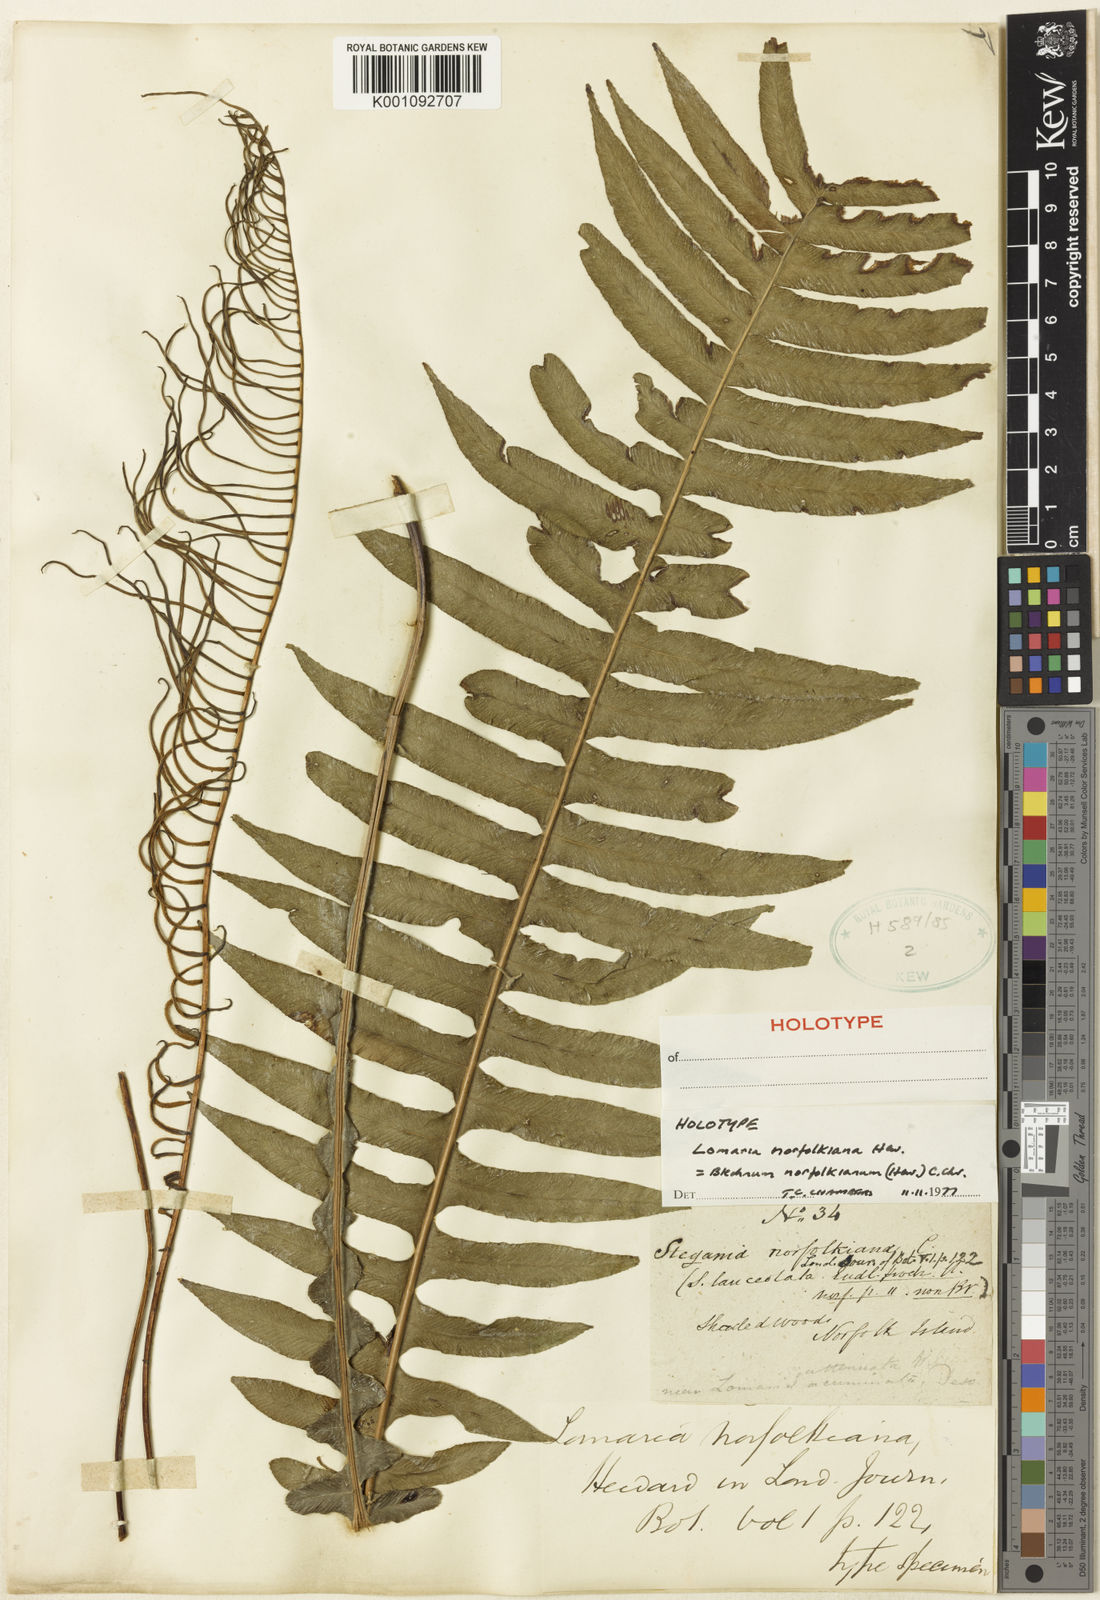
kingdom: Plantae
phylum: Tracheophyta
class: Polypodiopsida
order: Polypodiales
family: Blechnaceae
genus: Austroblechnum
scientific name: Austroblechnum norfolkianum
